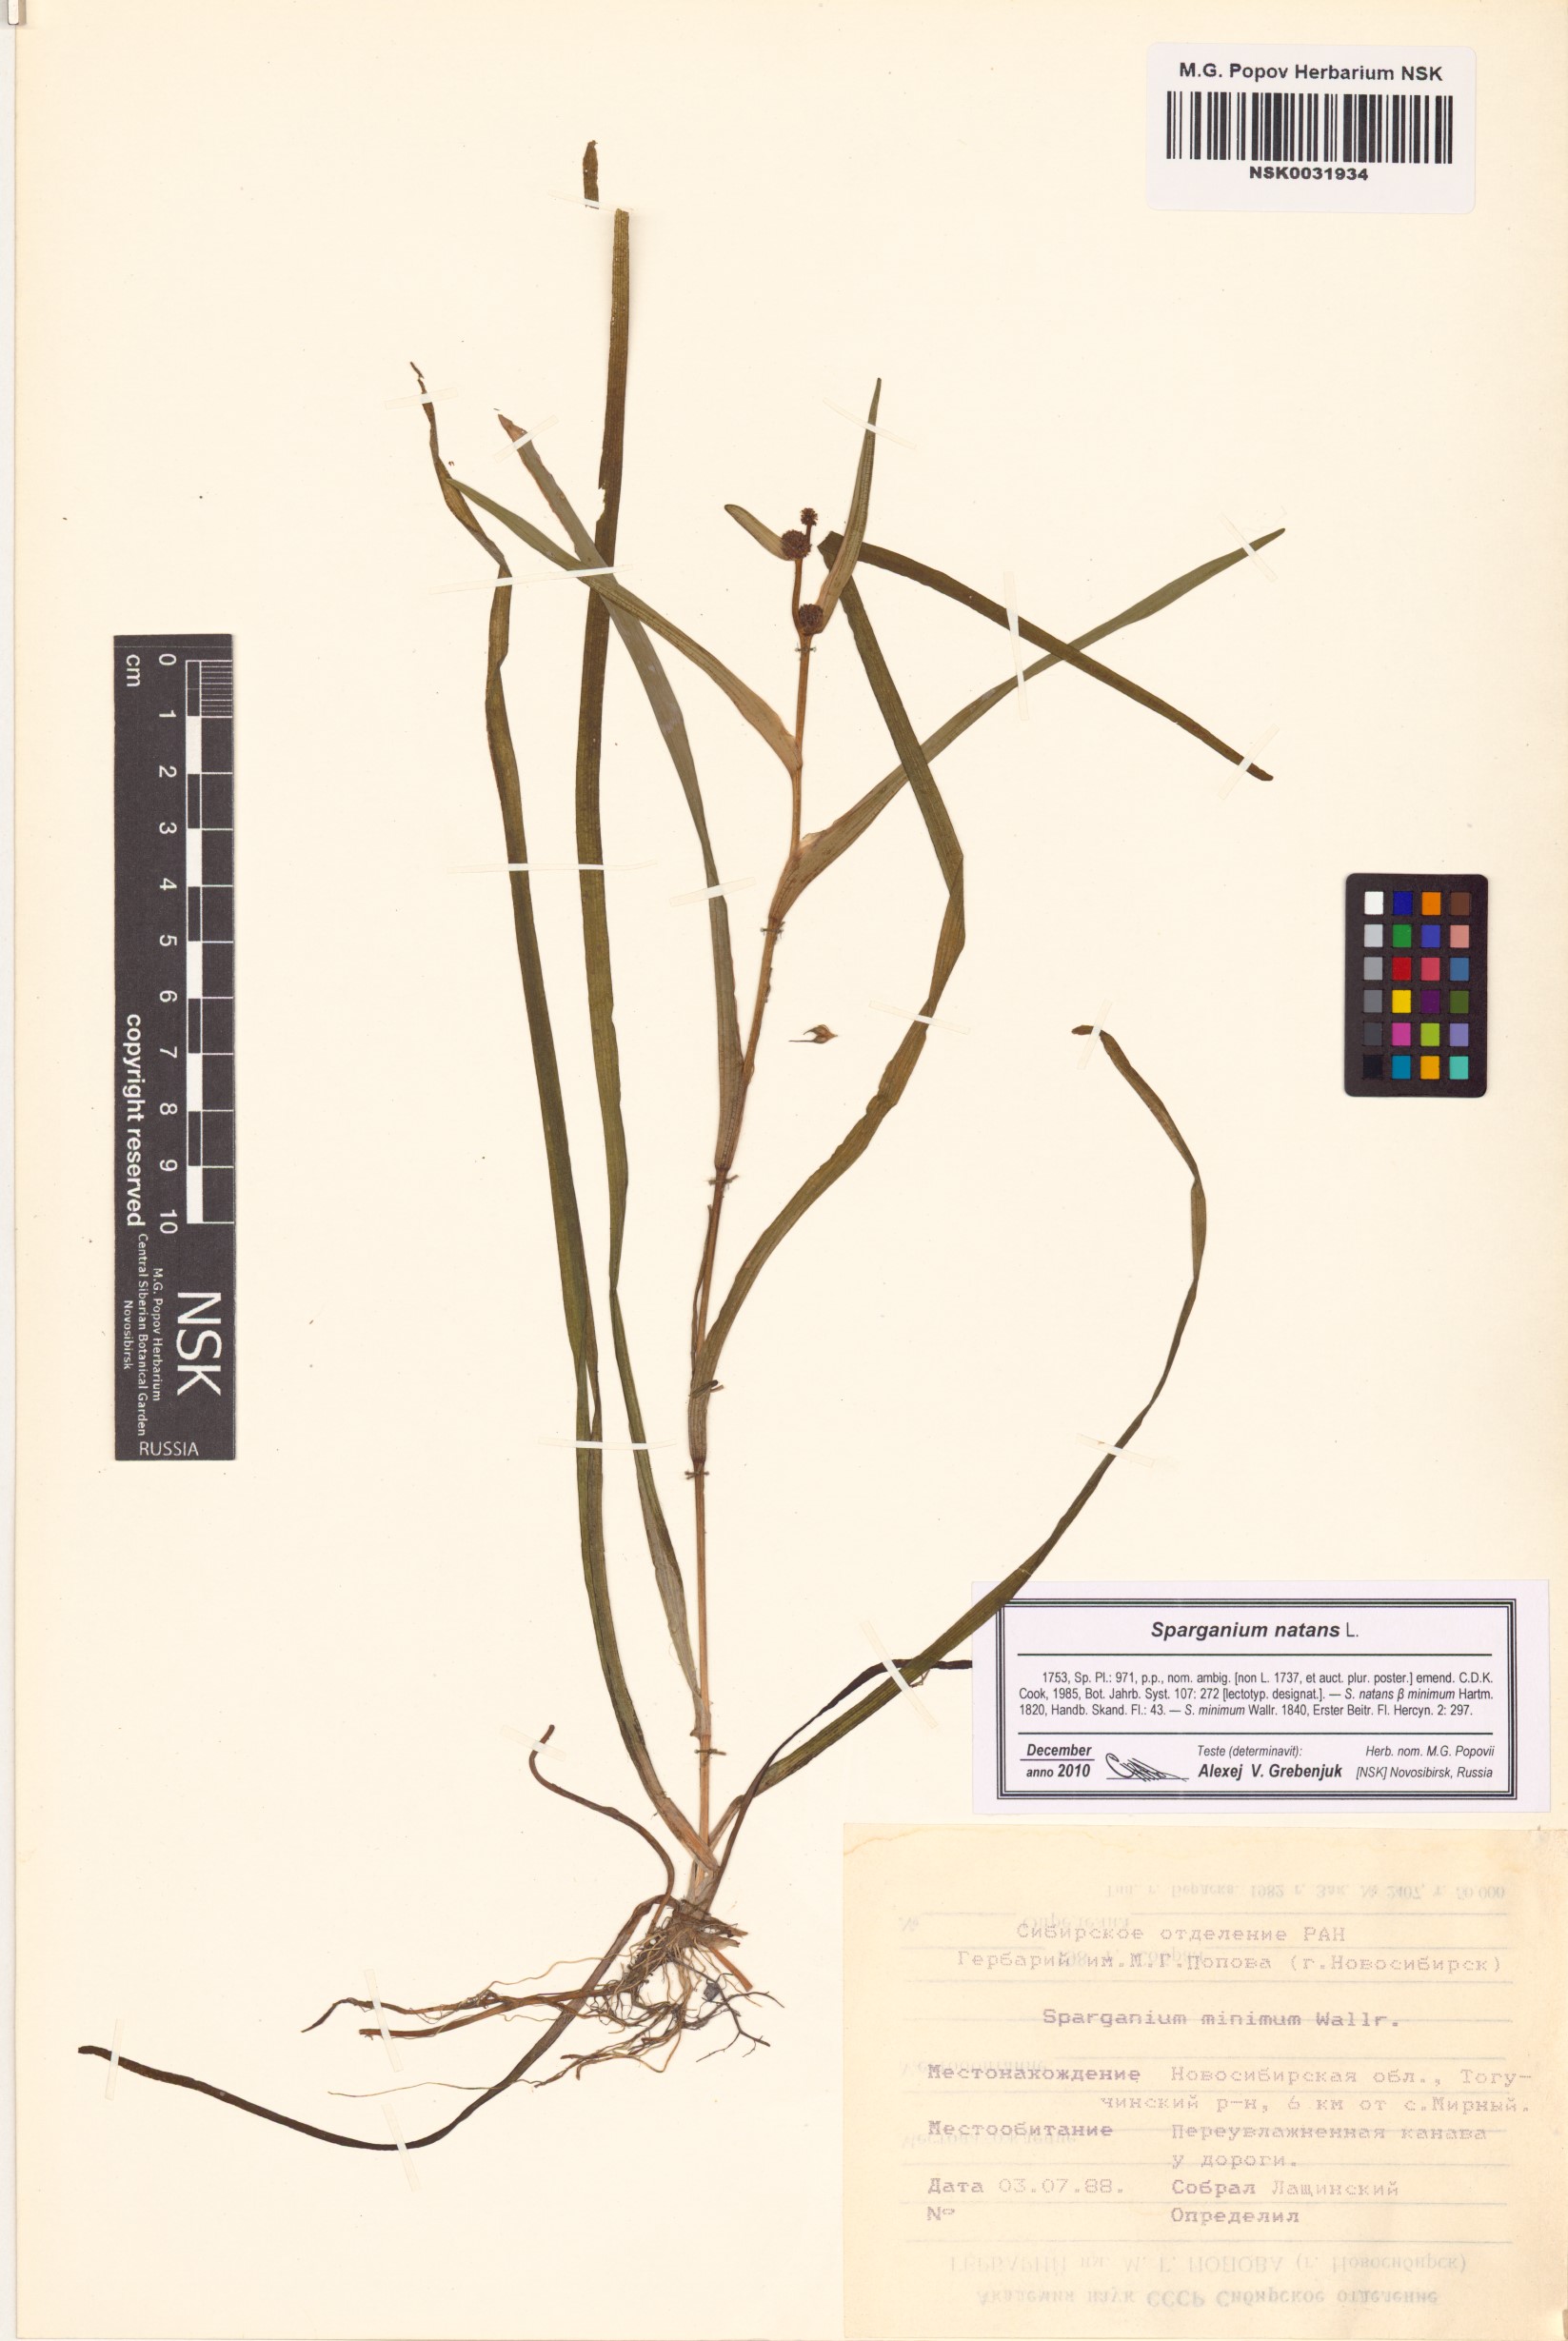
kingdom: Plantae
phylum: Tracheophyta
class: Liliopsida
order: Poales
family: Typhaceae
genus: Sparganium
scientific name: Sparganium natans
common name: Least bur-reed
